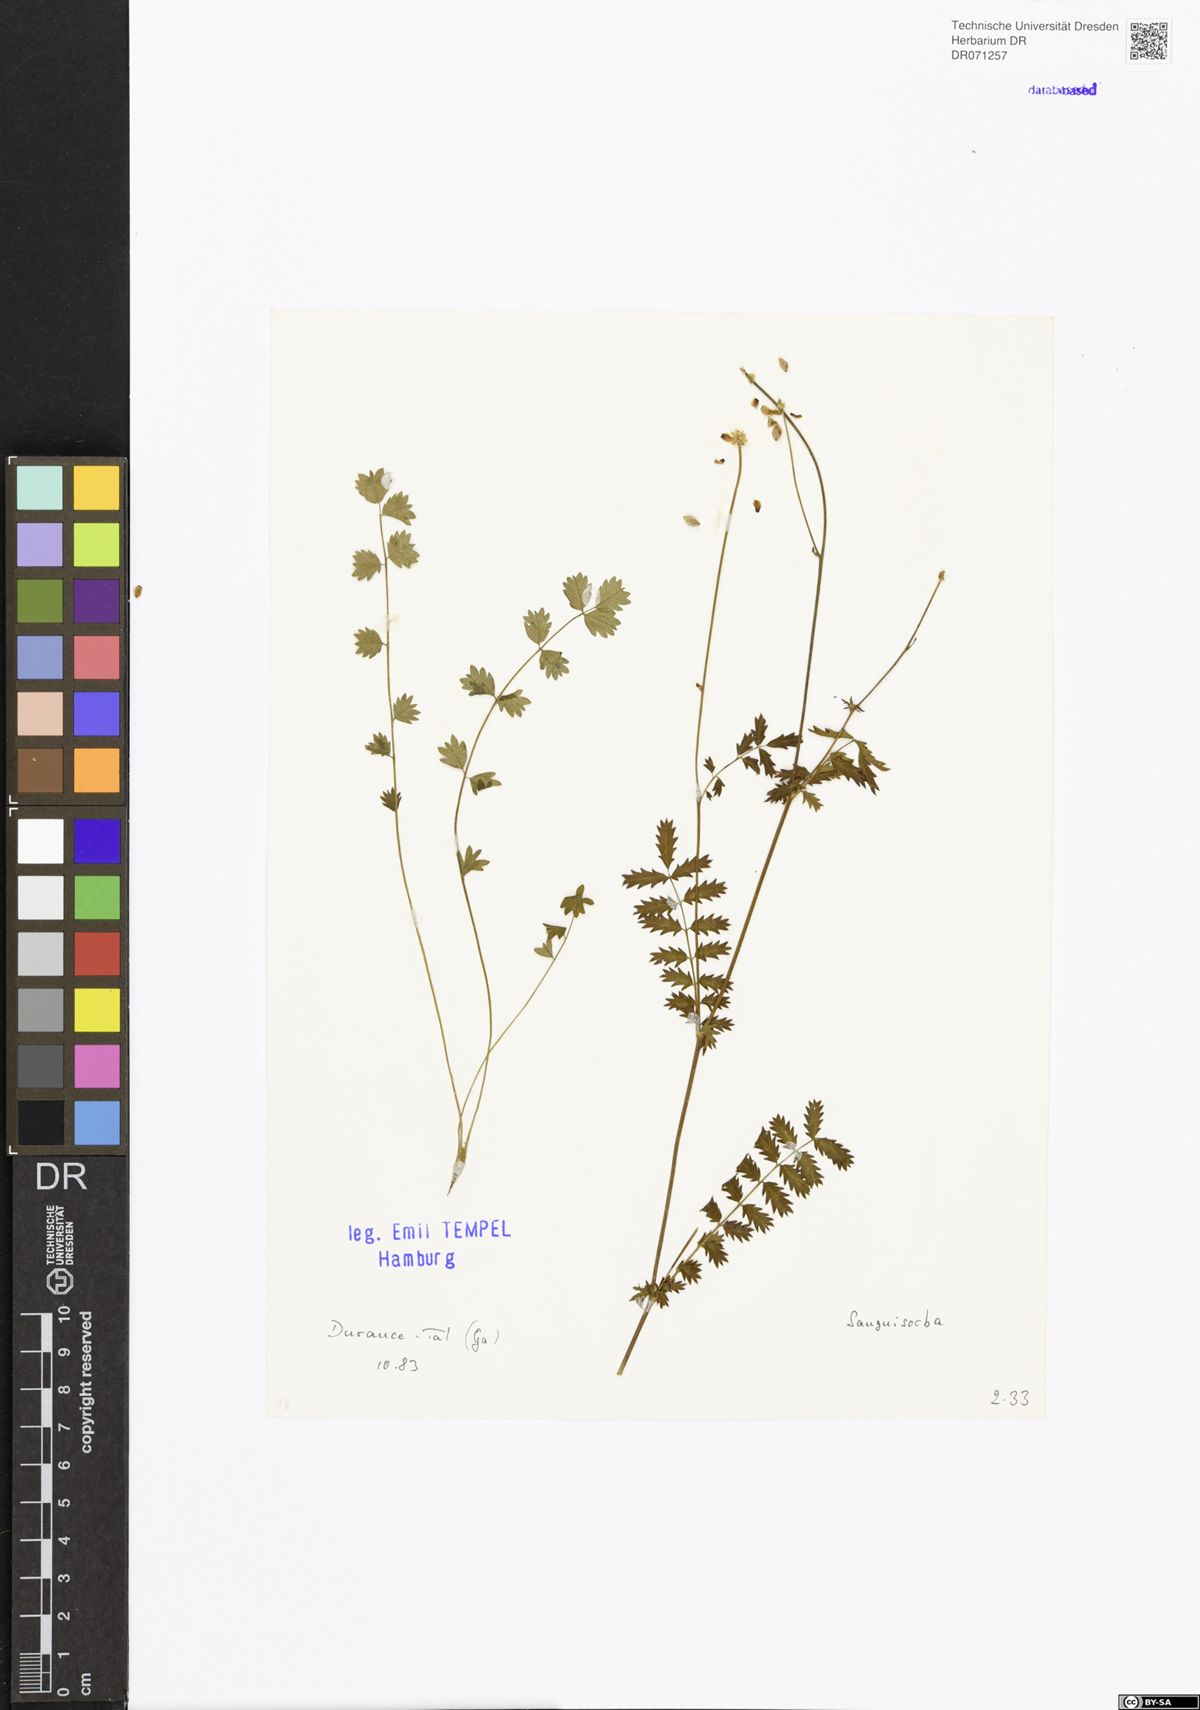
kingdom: Plantae
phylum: Tracheophyta
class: Magnoliopsida
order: Rosales
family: Rosaceae
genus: Sanguisorba
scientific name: Sanguisorba
